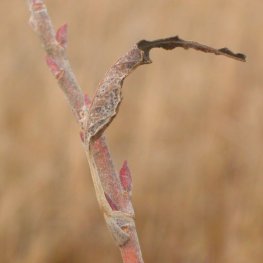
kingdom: Animalia
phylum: Arthropoda
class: Insecta
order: Lepidoptera
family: Nymphalidae
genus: Limenitis
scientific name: Limenitis archippus
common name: Viceroy
